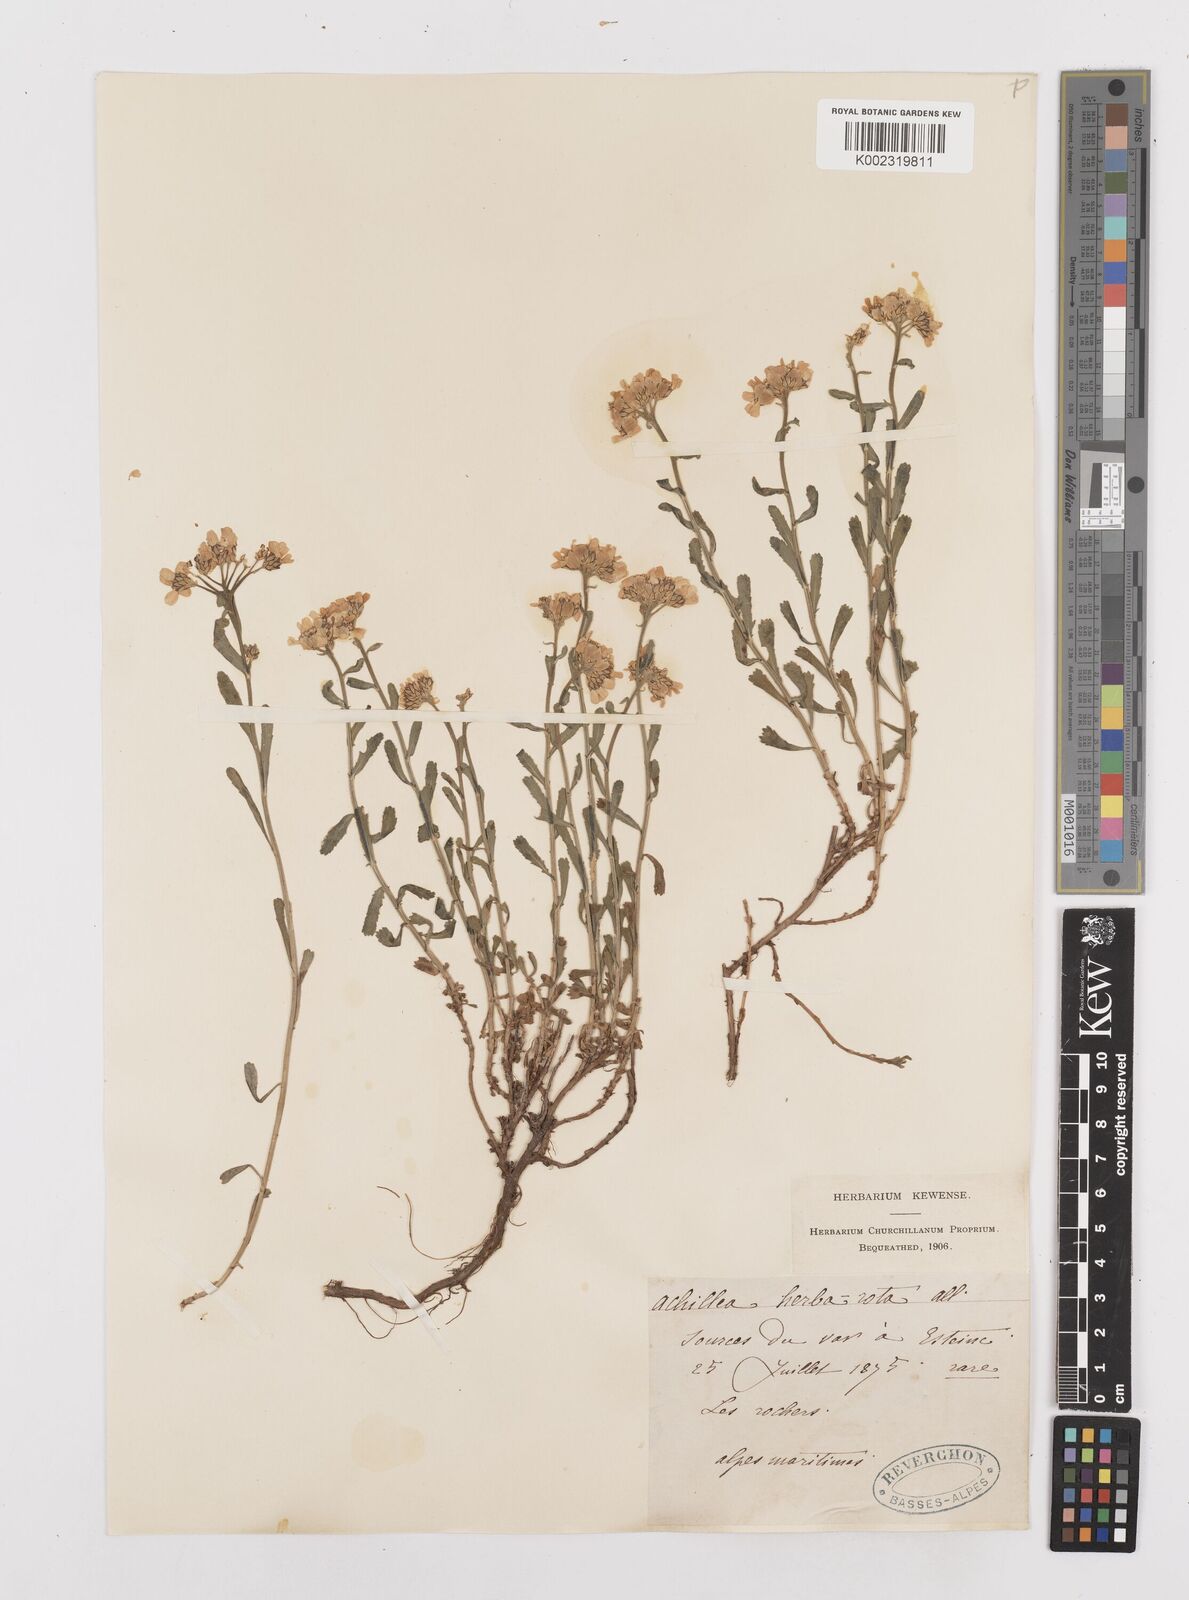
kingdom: Plantae
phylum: Tracheophyta
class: Magnoliopsida
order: Asterales
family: Asteraceae
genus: Achillea
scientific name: Achillea erba-rotta
